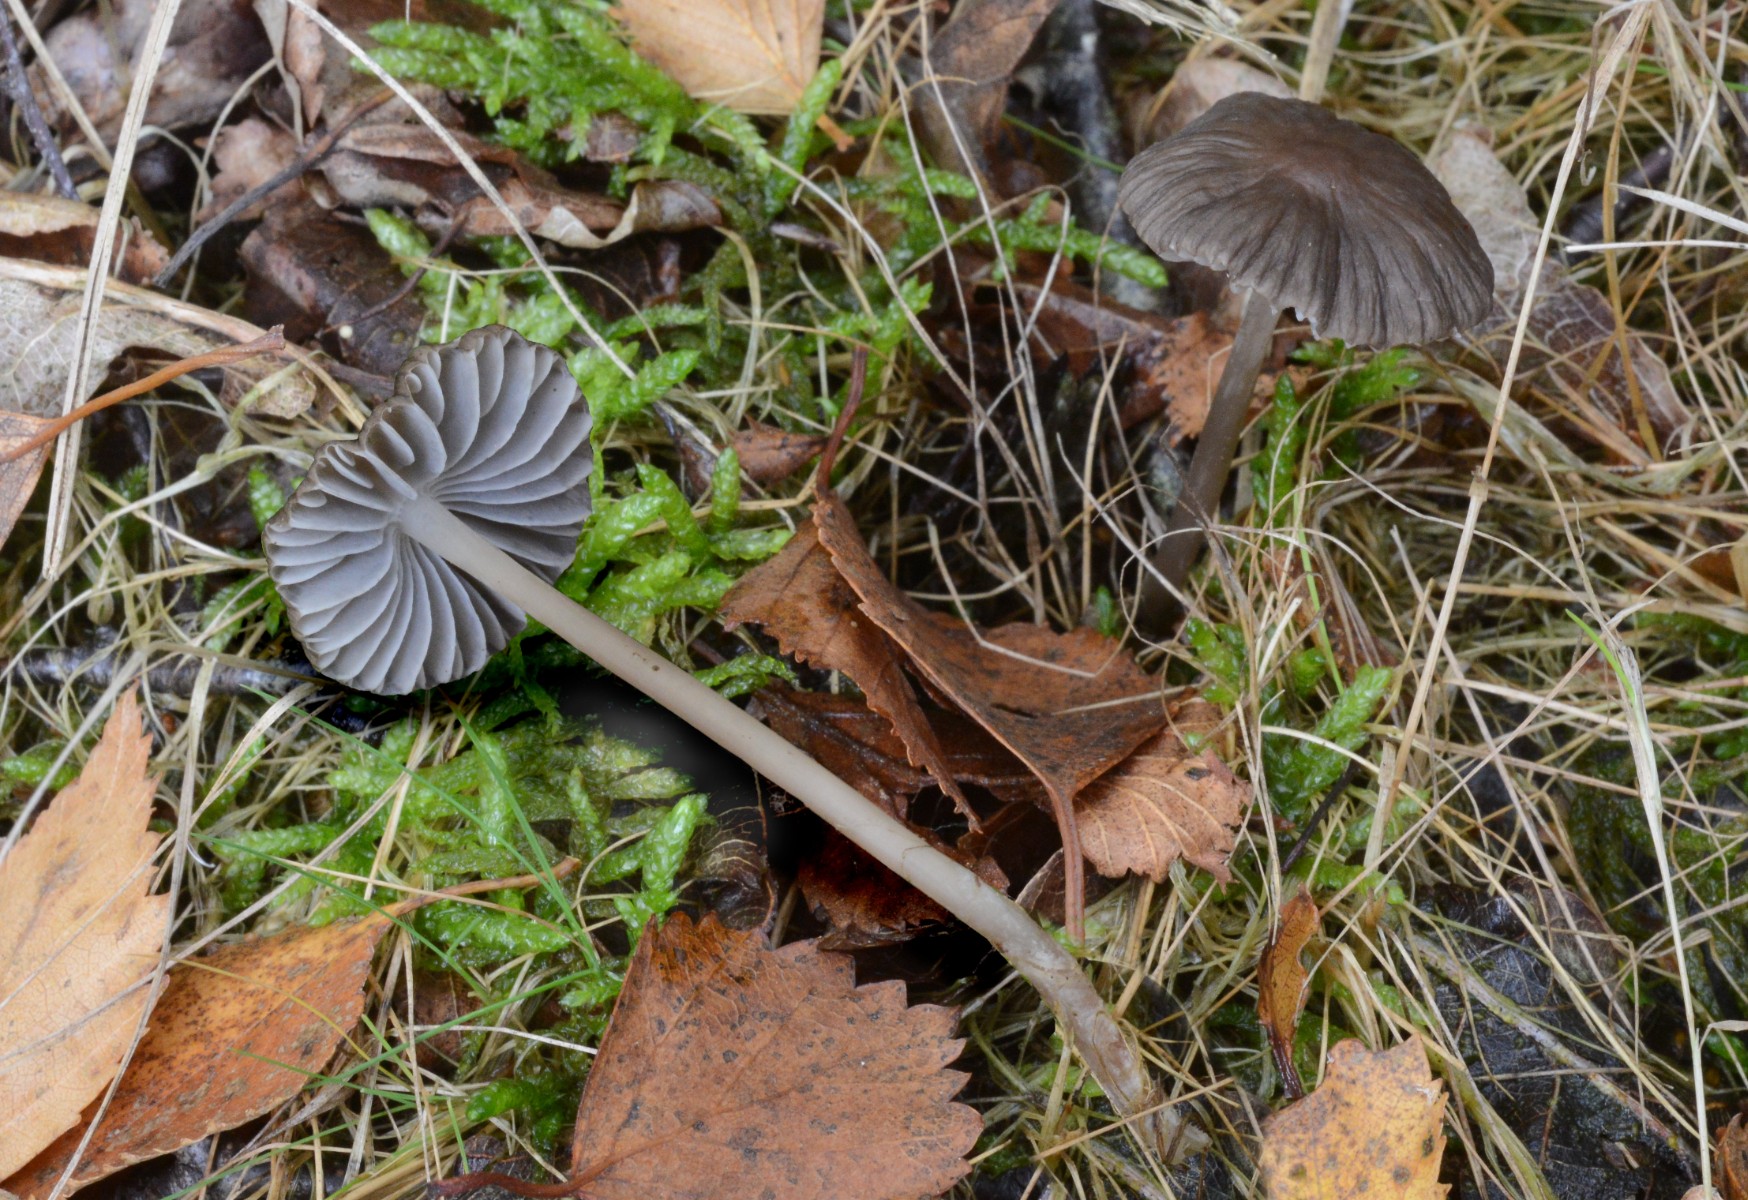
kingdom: Fungi
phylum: Basidiomycota
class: Agaricomycetes
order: Agaricales
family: Mycenaceae
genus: Mycena
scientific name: Mycena leptocephala
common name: klor-huesvamp
